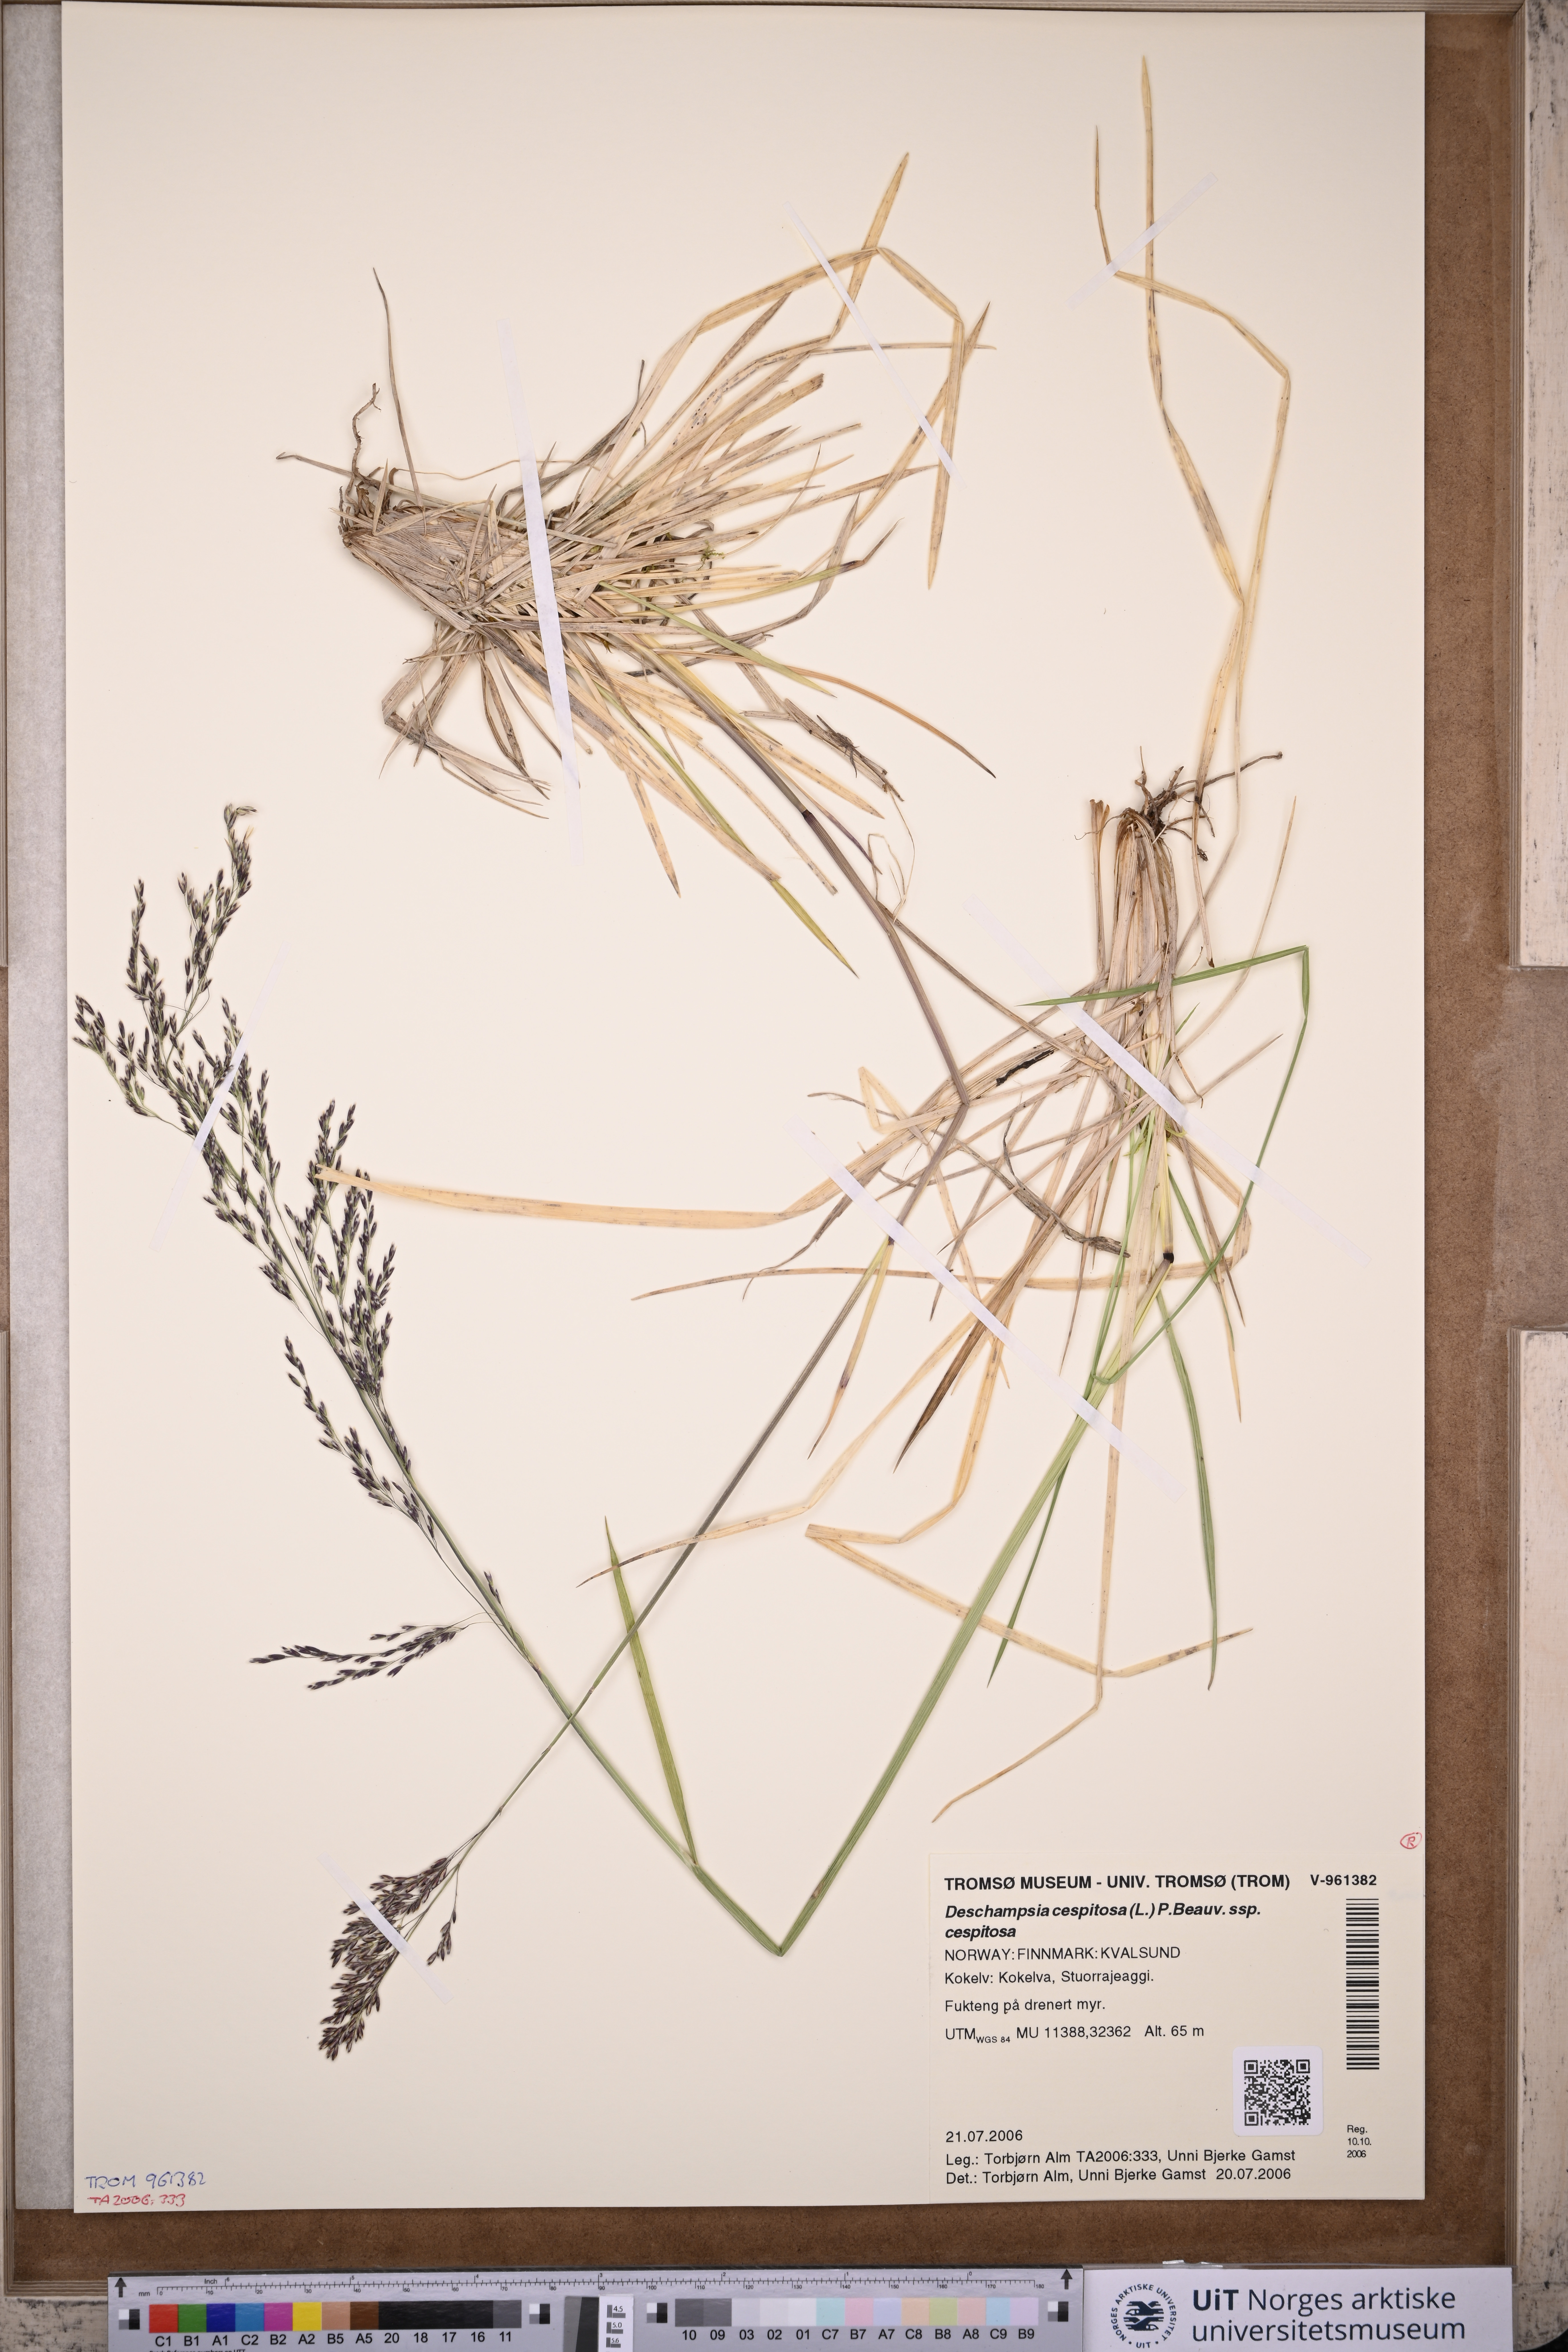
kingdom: Plantae
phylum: Tracheophyta
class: Liliopsida
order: Poales
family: Poaceae
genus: Deschampsia
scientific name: Deschampsia cespitosa
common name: Tufted hair-grass
